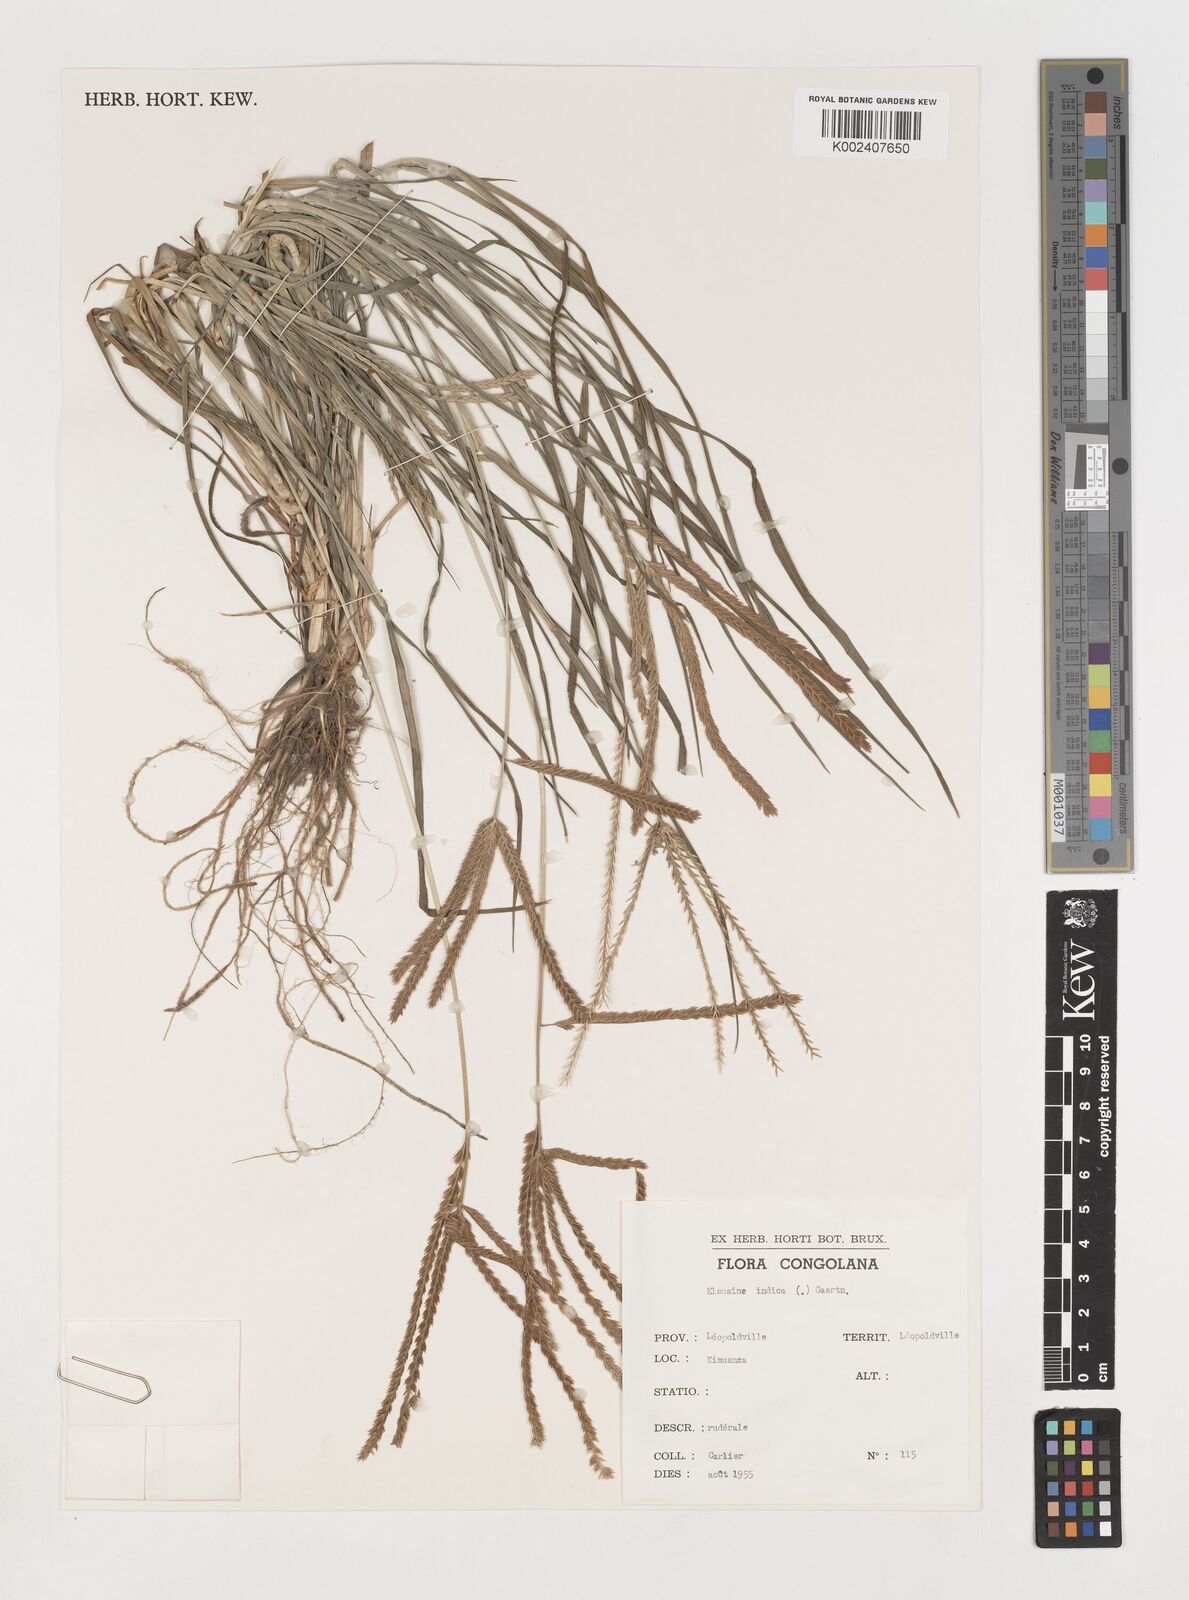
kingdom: Plantae
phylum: Tracheophyta
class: Liliopsida
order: Poales
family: Poaceae
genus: Eleusine
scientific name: Eleusine africana
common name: Wild african finger millet
